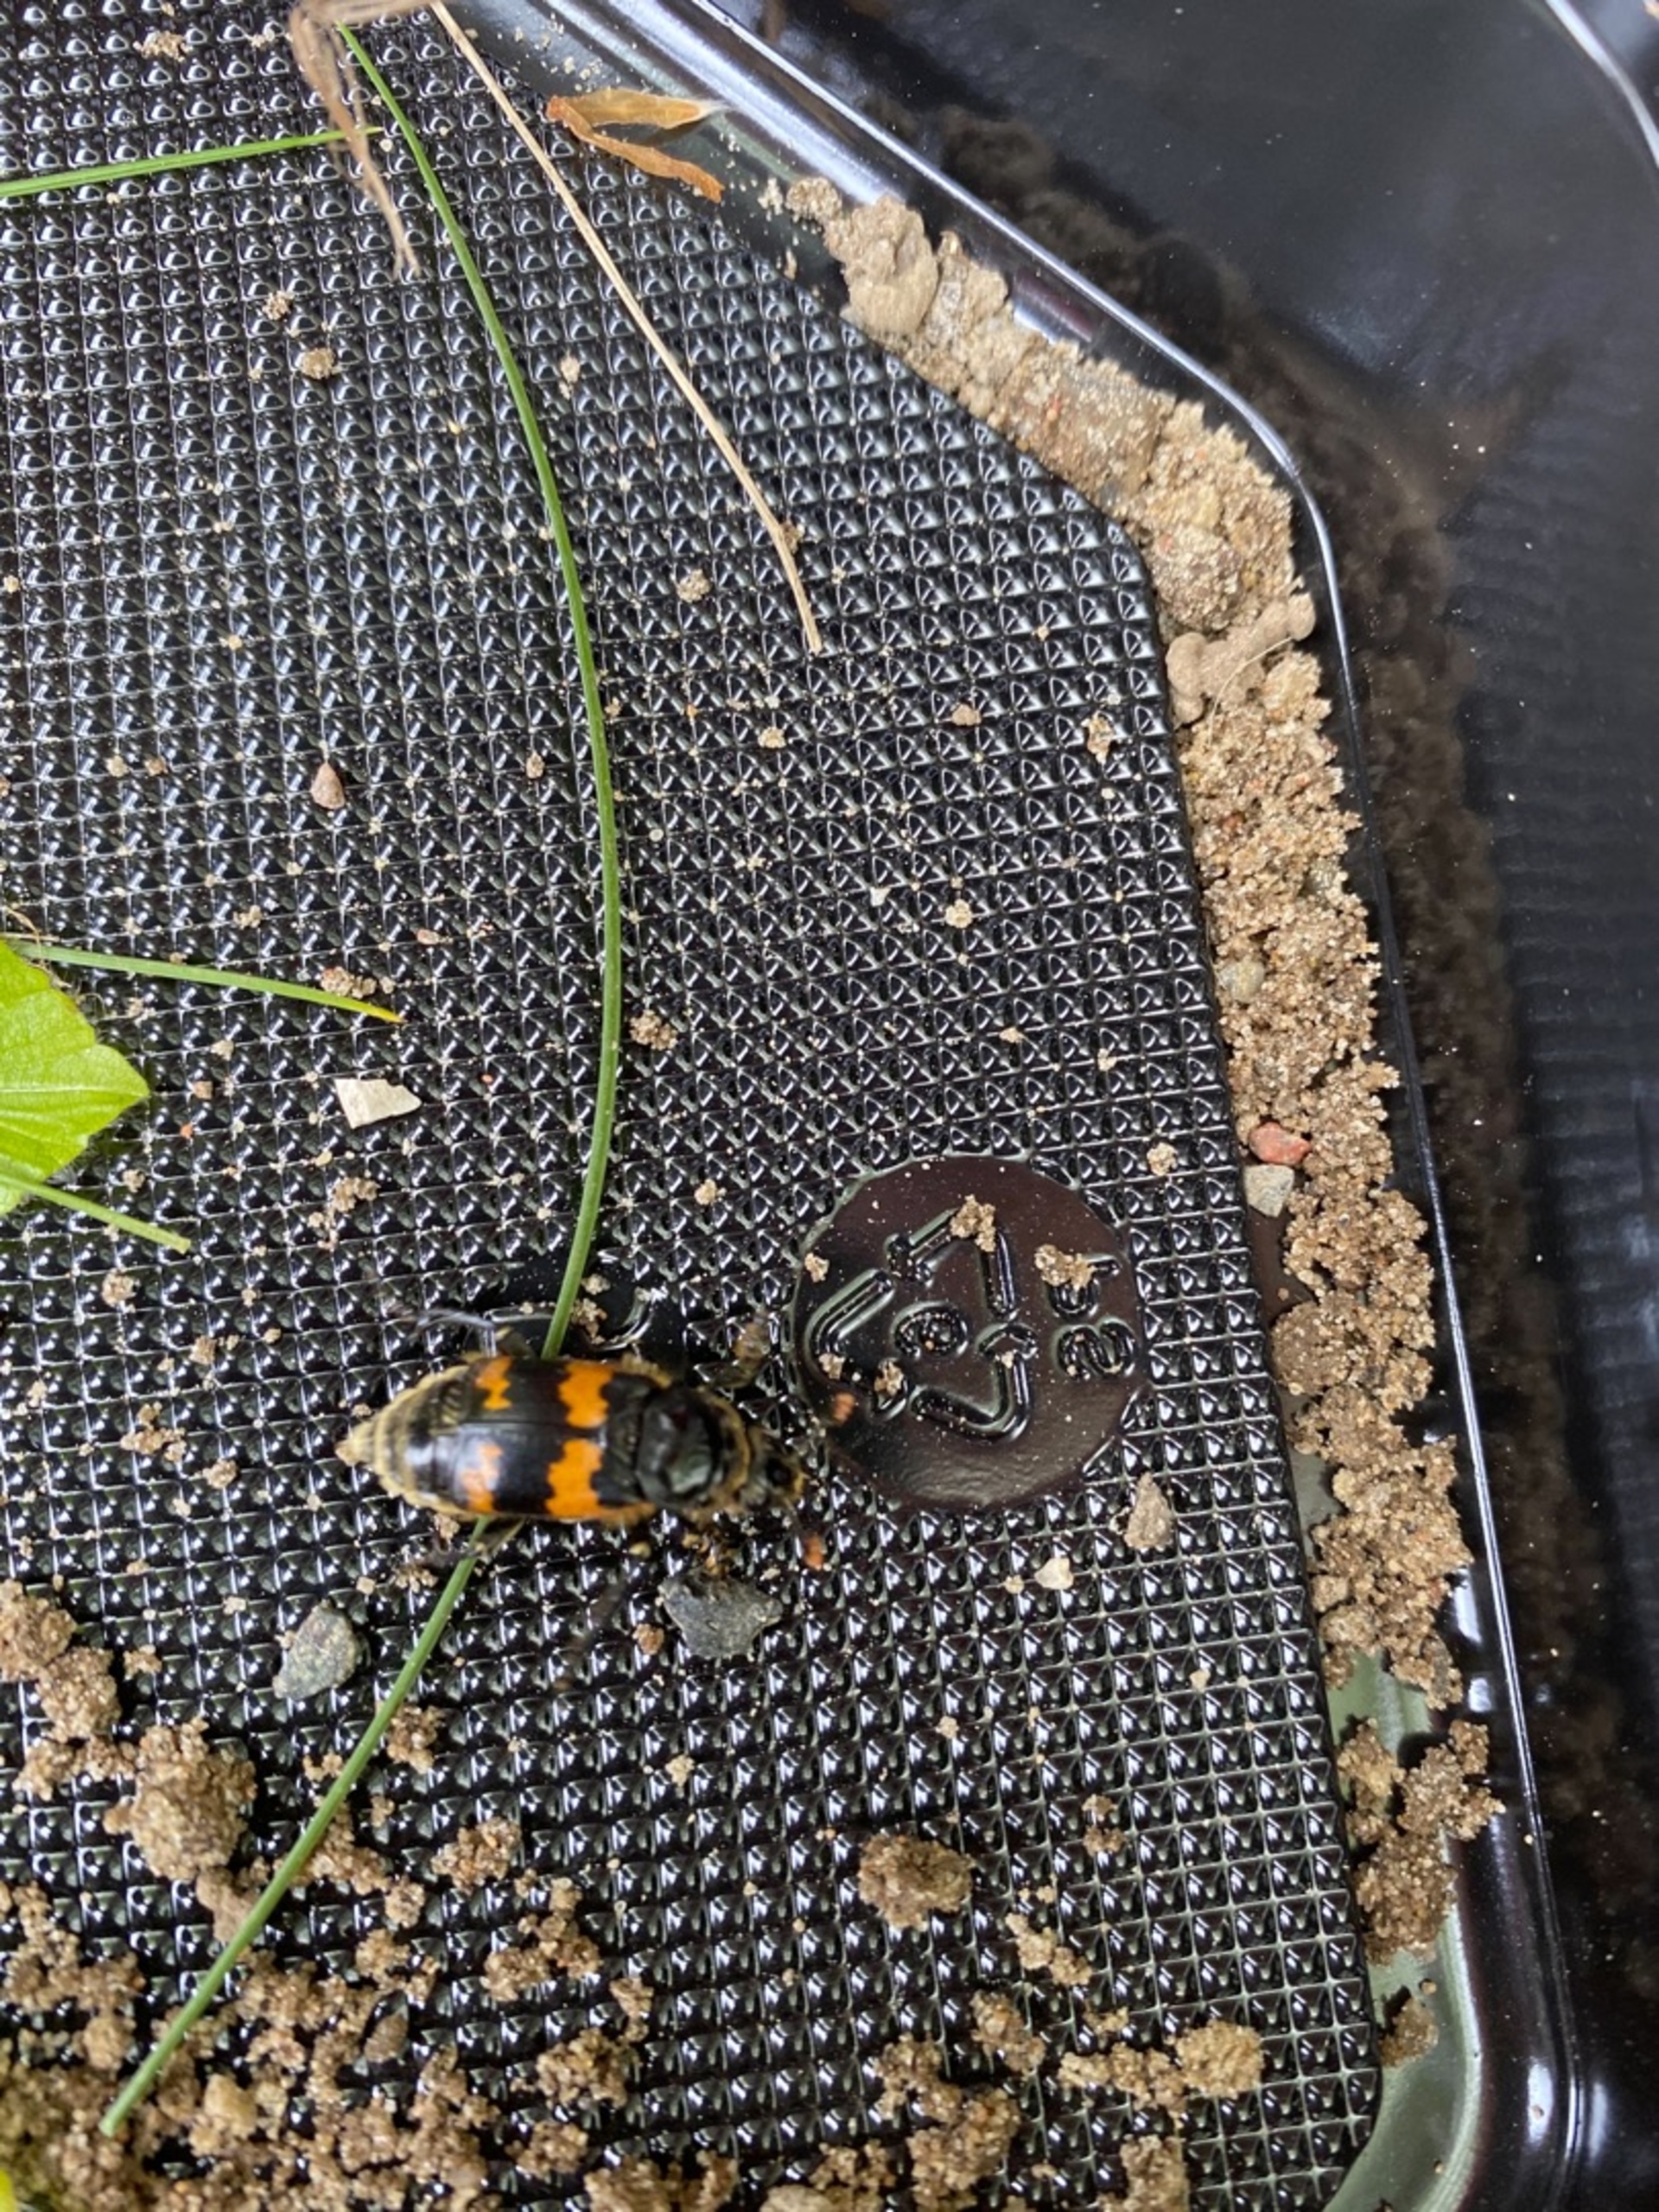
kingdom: Animalia
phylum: Arthropoda
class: Insecta
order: Coleoptera
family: Staphylinidae
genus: Nicrophorus
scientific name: Nicrophorus vespillo
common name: Krumbenet ådselgraver
